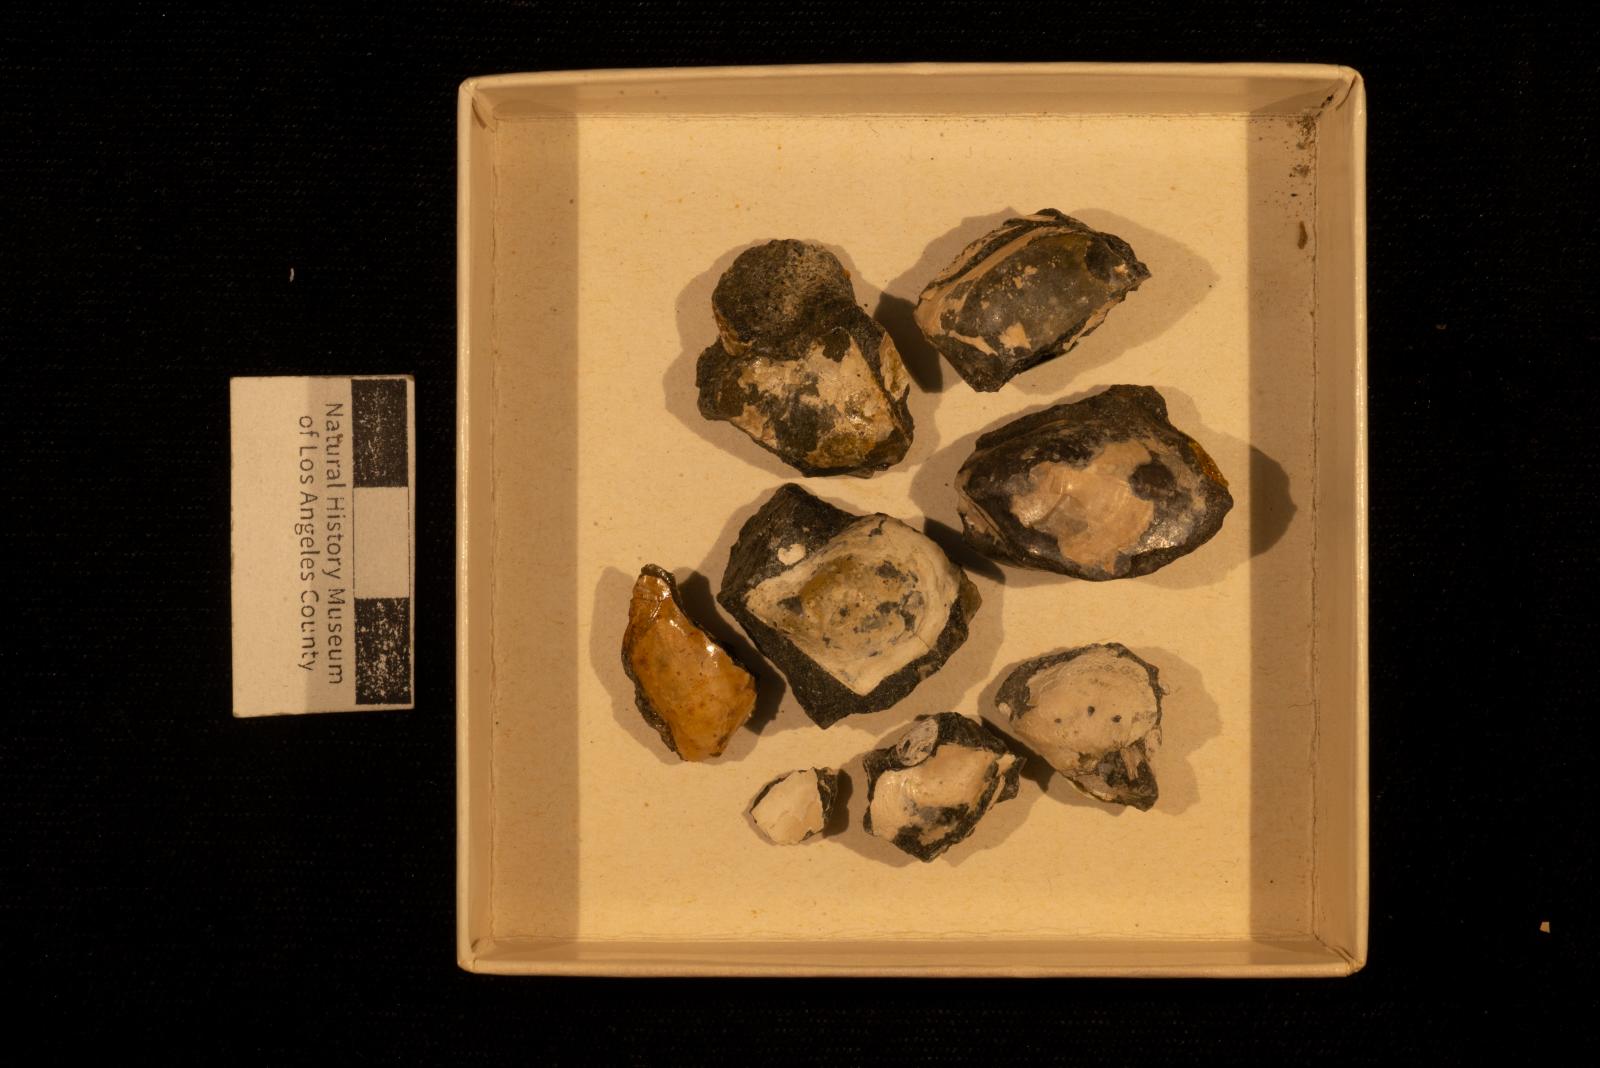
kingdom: Animalia
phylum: Mollusca
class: Bivalvia
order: Ostreida
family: Pteriidae
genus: Pteria
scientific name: Pteria pellucida
